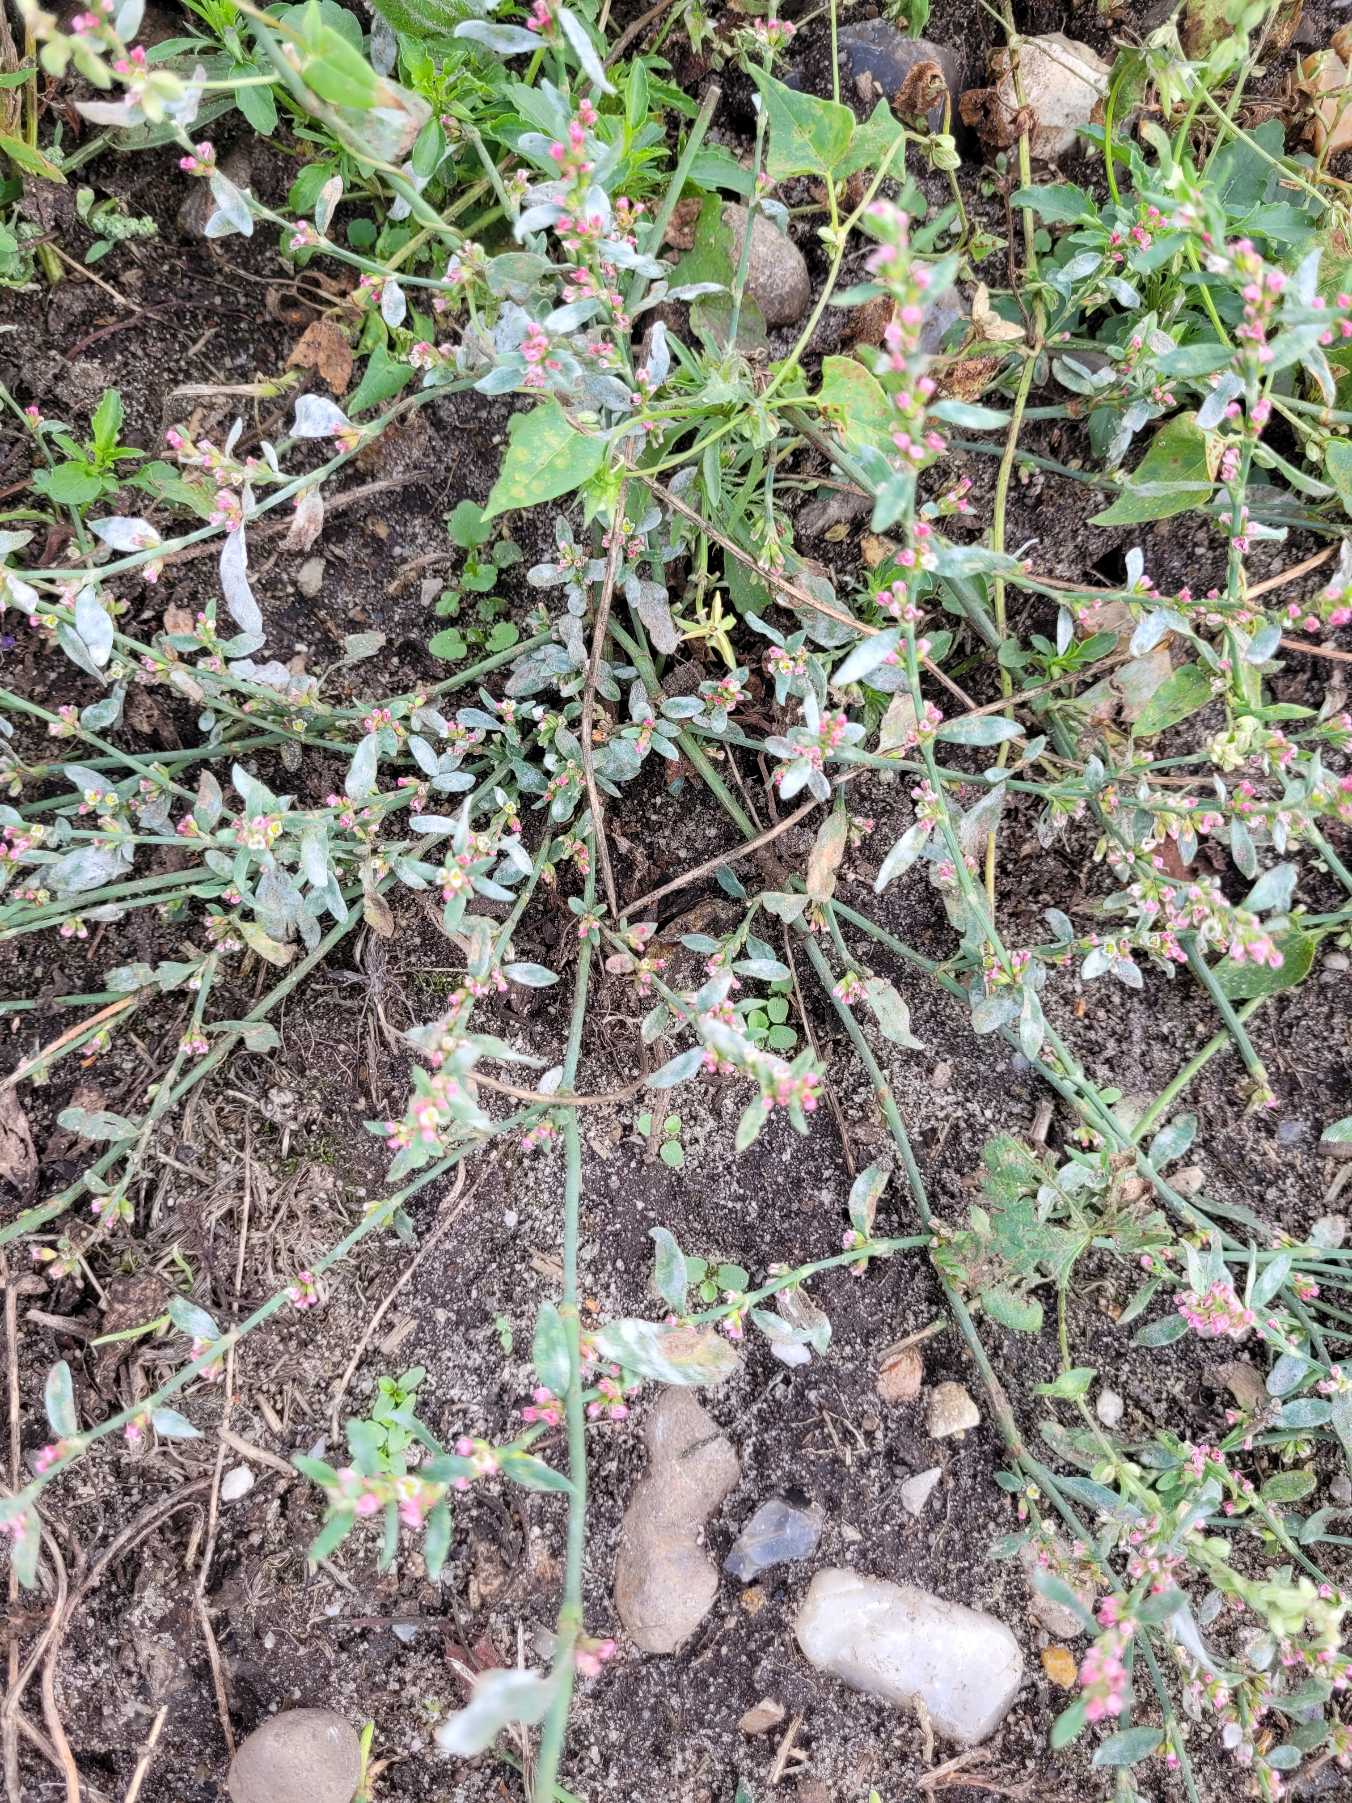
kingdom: Plantae
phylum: Tracheophyta
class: Magnoliopsida
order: Caryophyllales
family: Polygonaceae
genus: Polygonum
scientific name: Polygonum arenastrum
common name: Liggende vej-pileurt
